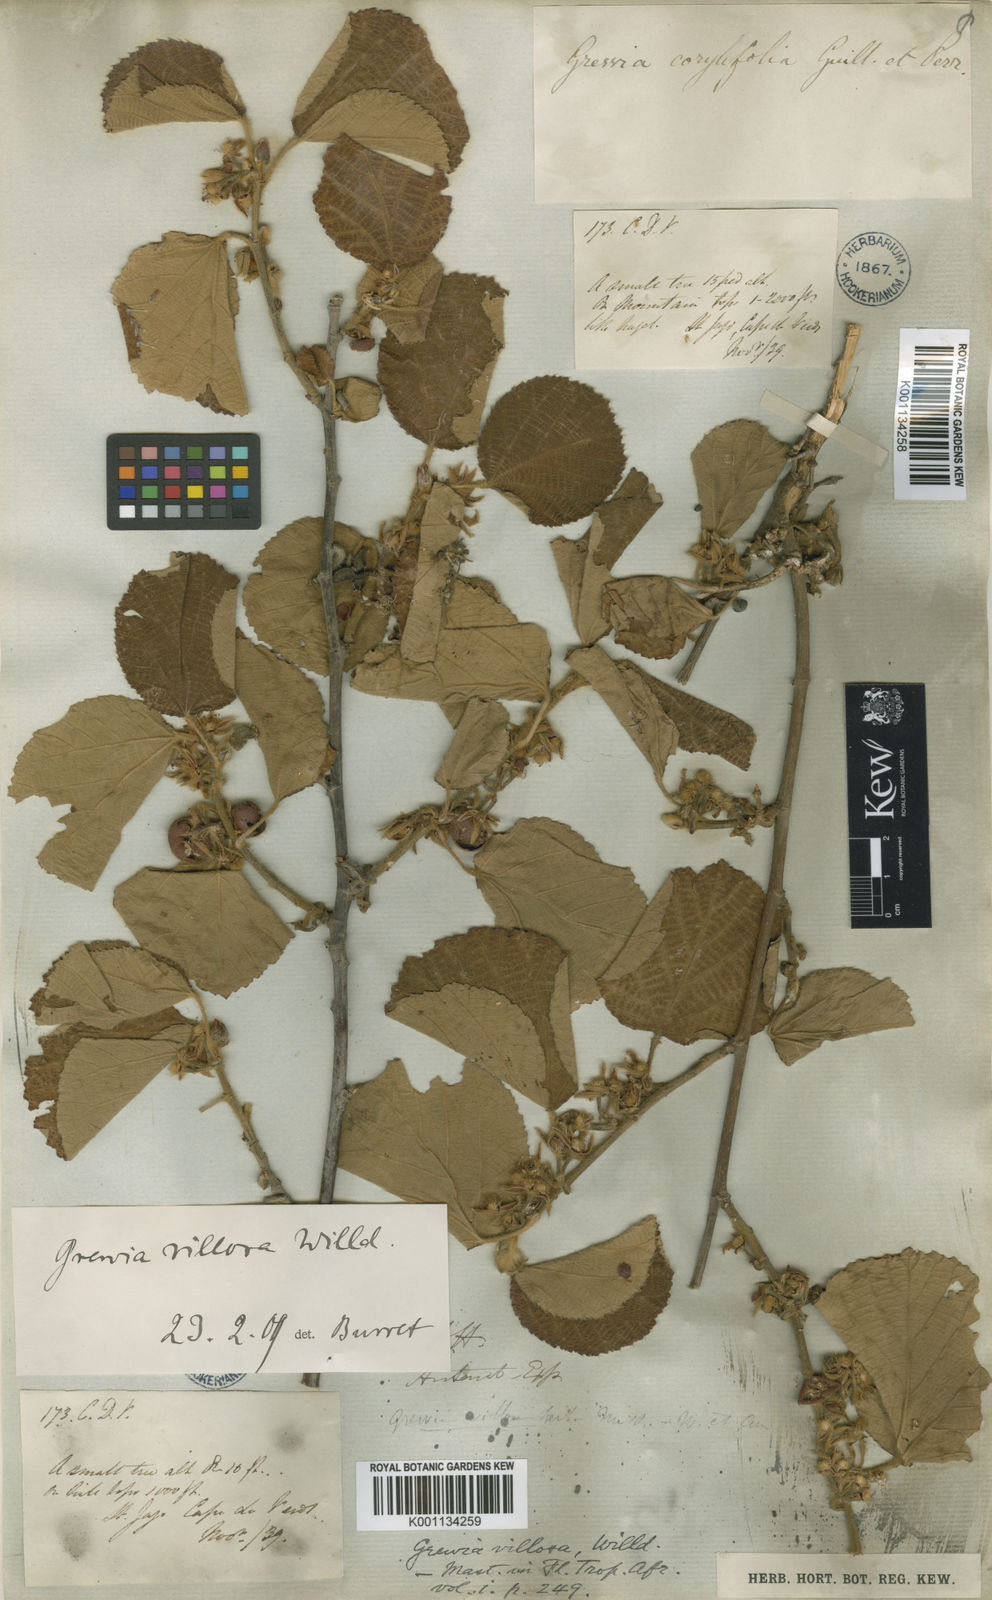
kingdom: Plantae
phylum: Tracheophyta
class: Magnoliopsida
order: Malvales
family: Malvaceae
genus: Grewia
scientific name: Grewia villosa
